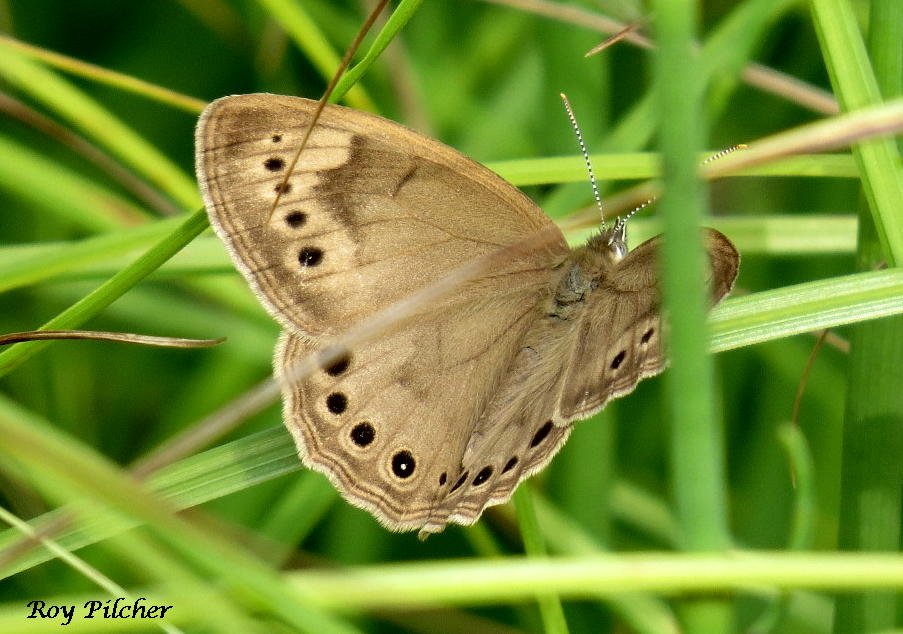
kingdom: Animalia
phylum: Arthropoda
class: Insecta
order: Lepidoptera
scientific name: Lepidoptera
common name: Butterflies
